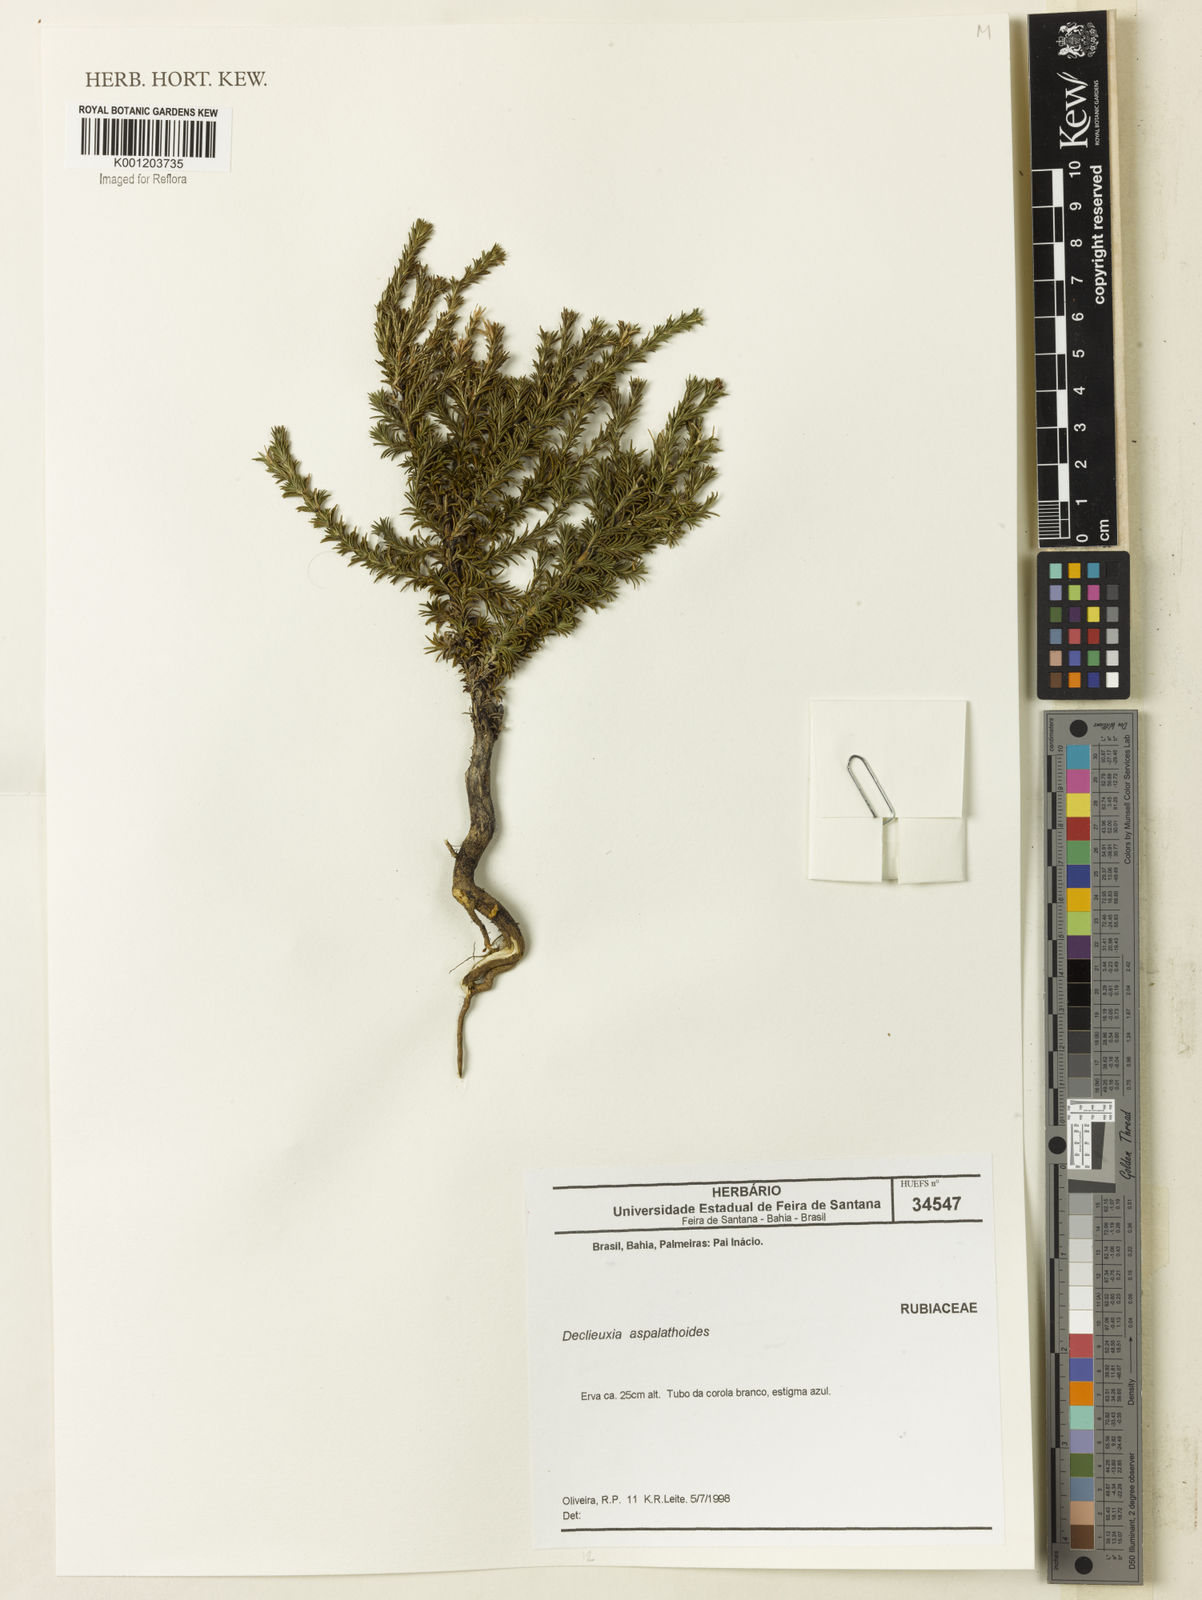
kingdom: Plantae
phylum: Tracheophyta
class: Magnoliopsida
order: Gentianales
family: Rubiaceae
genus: Declieuxia
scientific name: Declieuxia
